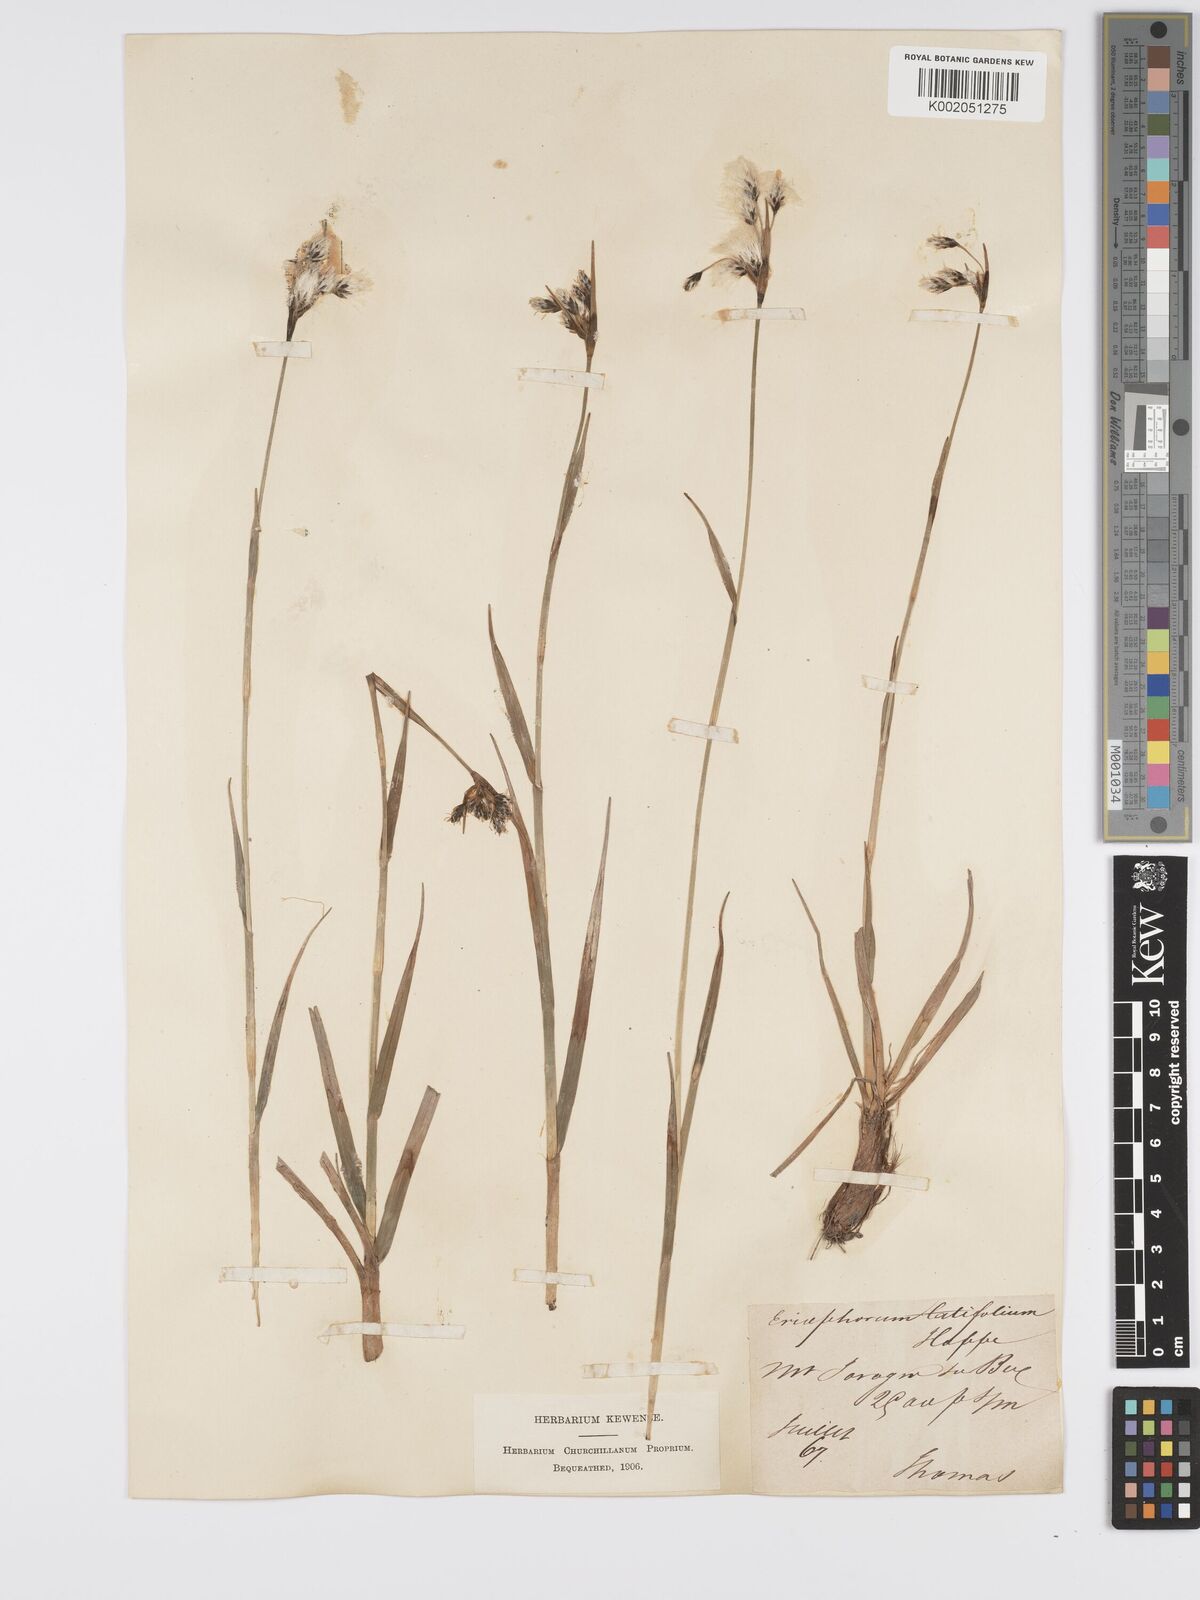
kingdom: Plantae
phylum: Tracheophyta
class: Liliopsida
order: Poales
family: Cyperaceae
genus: Eriophorum
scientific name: Eriophorum latifolium
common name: Broad-leaved cottongrass
